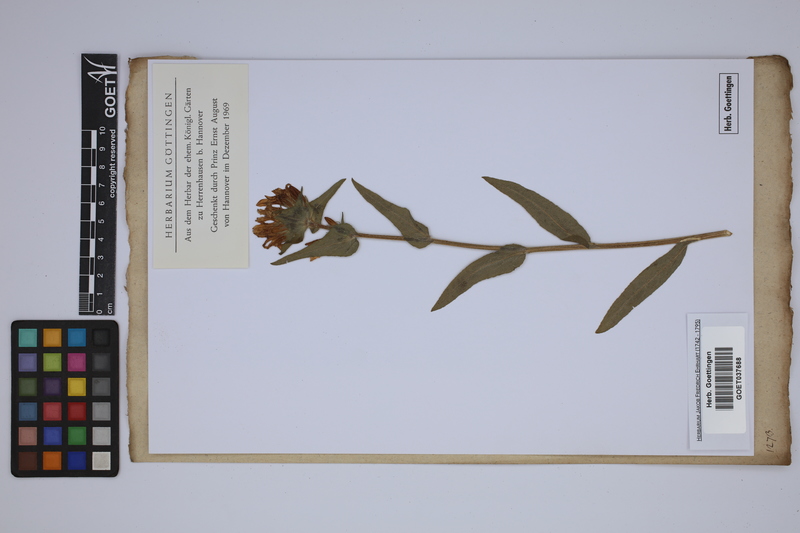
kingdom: Plantae
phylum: Tracheophyta
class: Magnoliopsida
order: Asterales
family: Campanulaceae
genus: Campanula
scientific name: Campanula glomerata
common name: Clustered bellflower
